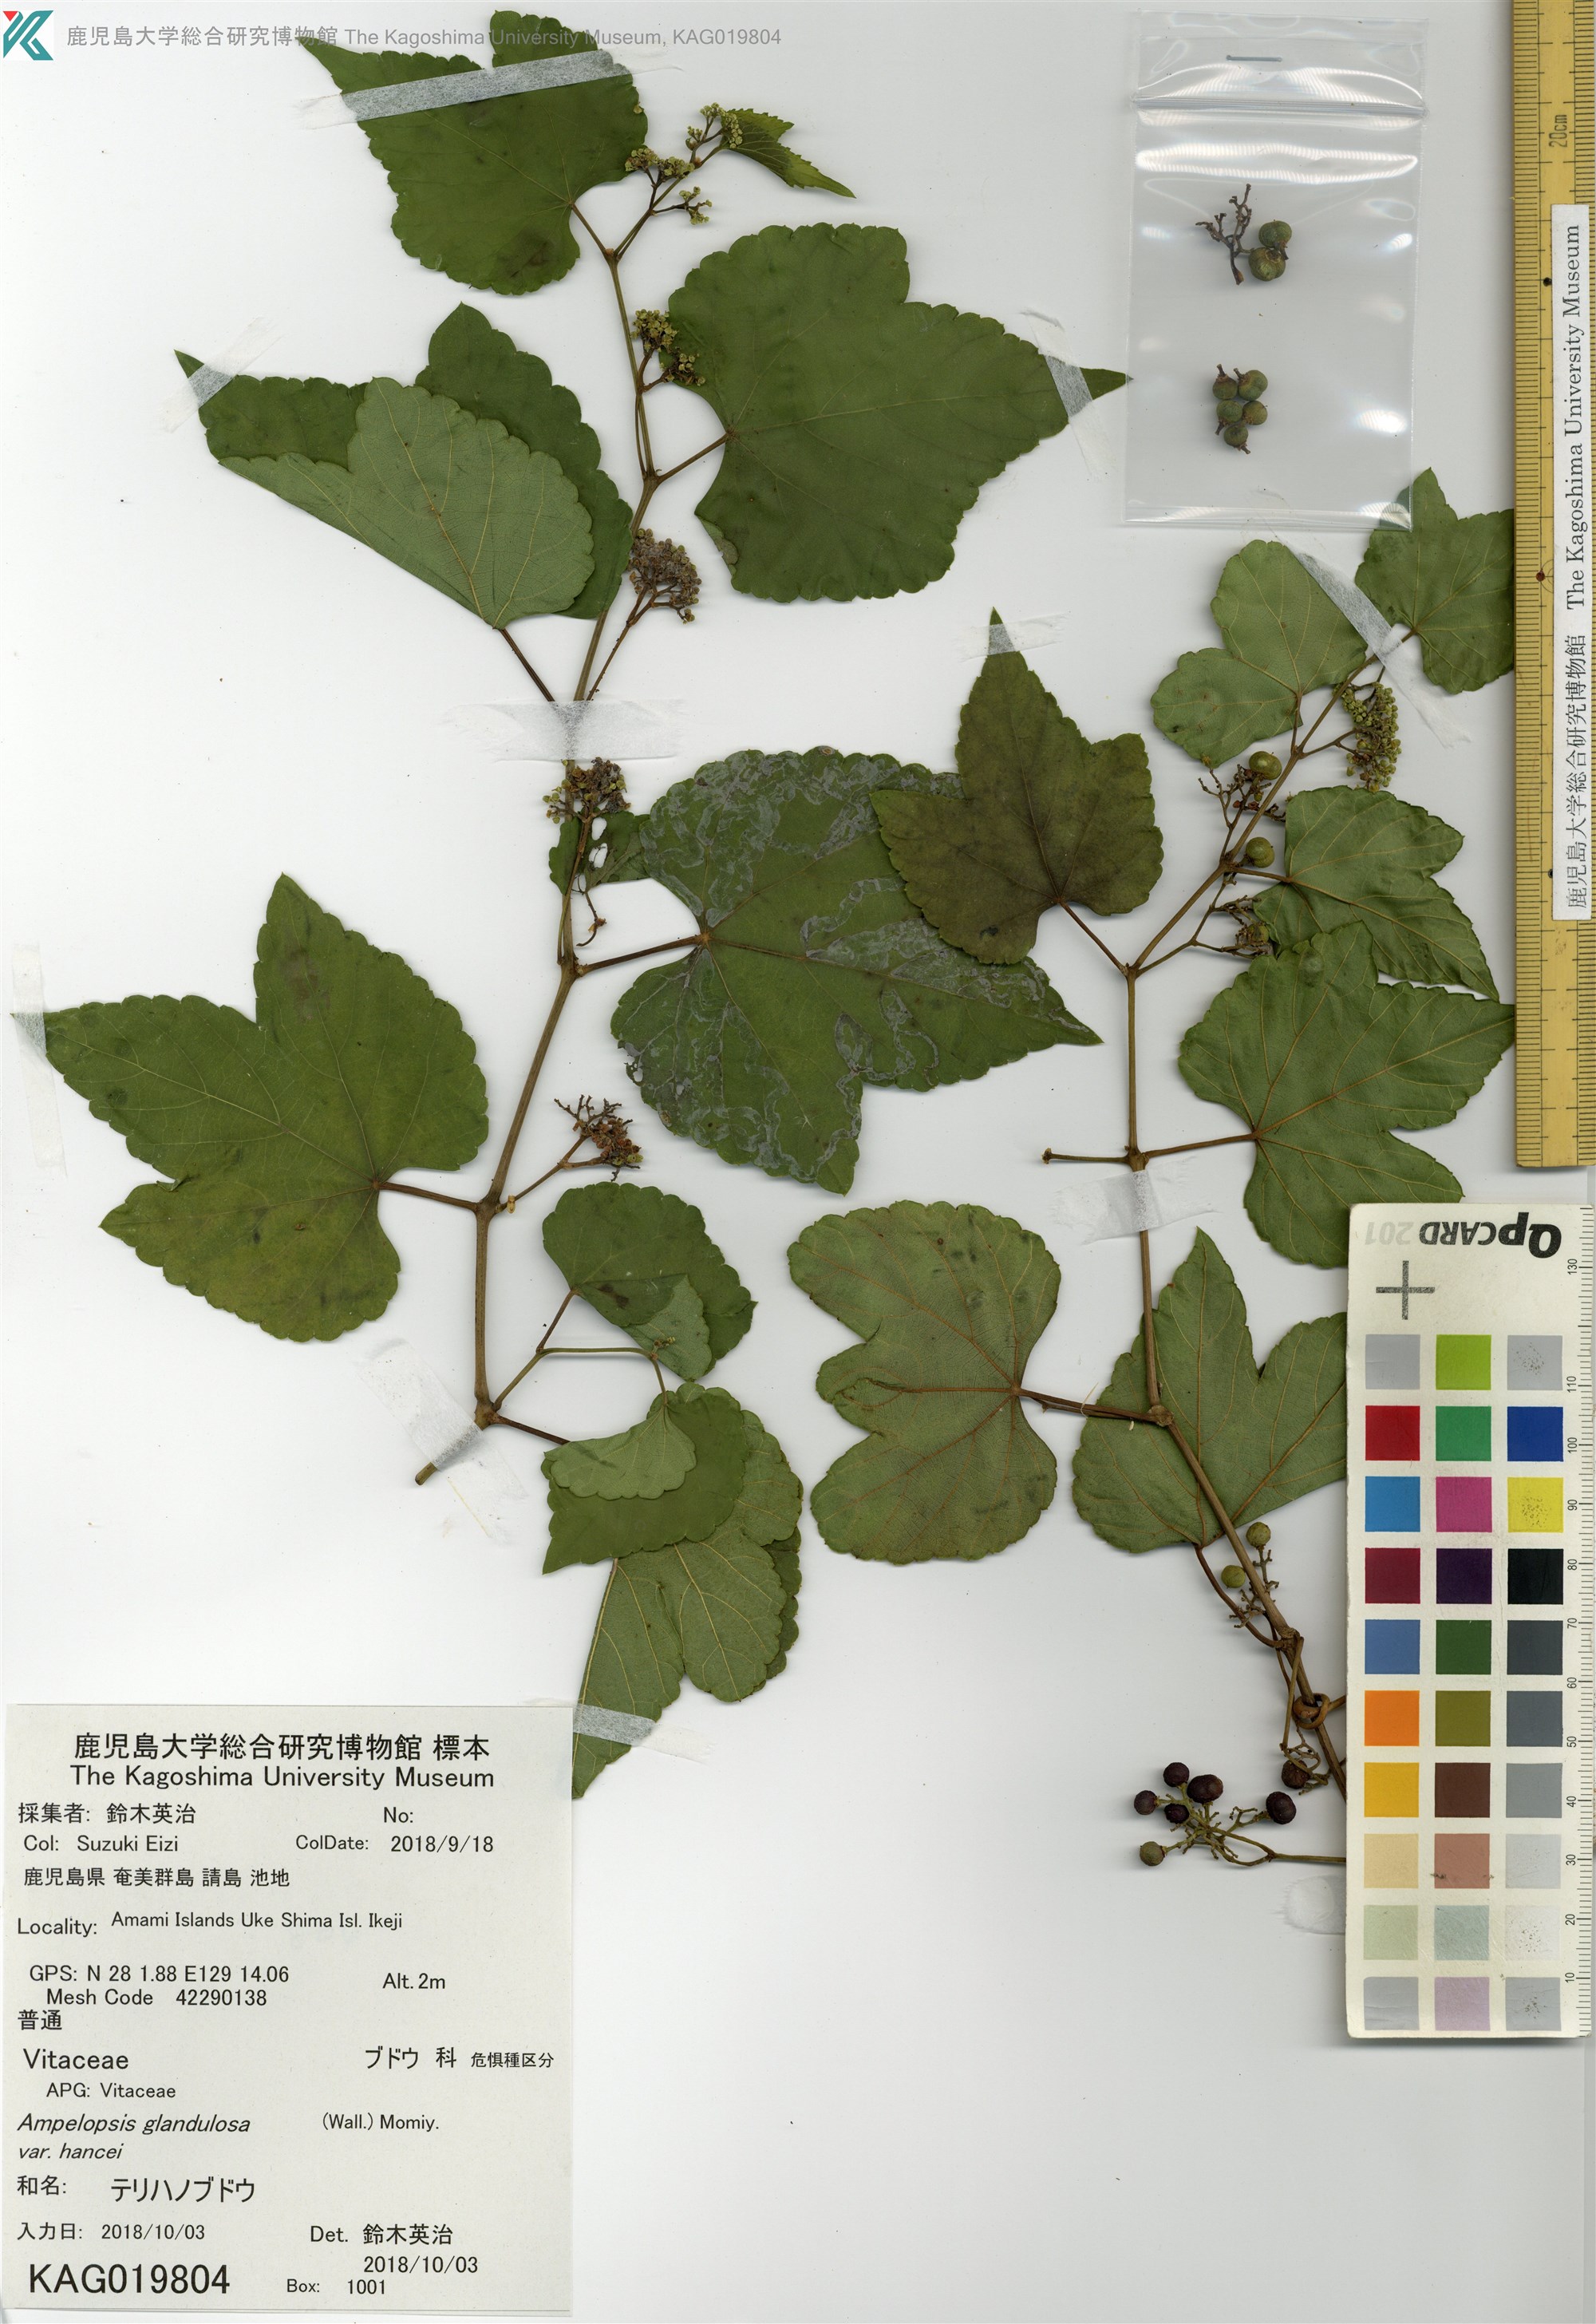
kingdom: Plantae
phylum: Tracheophyta
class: Magnoliopsida
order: Vitales
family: Vitaceae
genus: Ampelopsis
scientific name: Ampelopsis glandulosa
